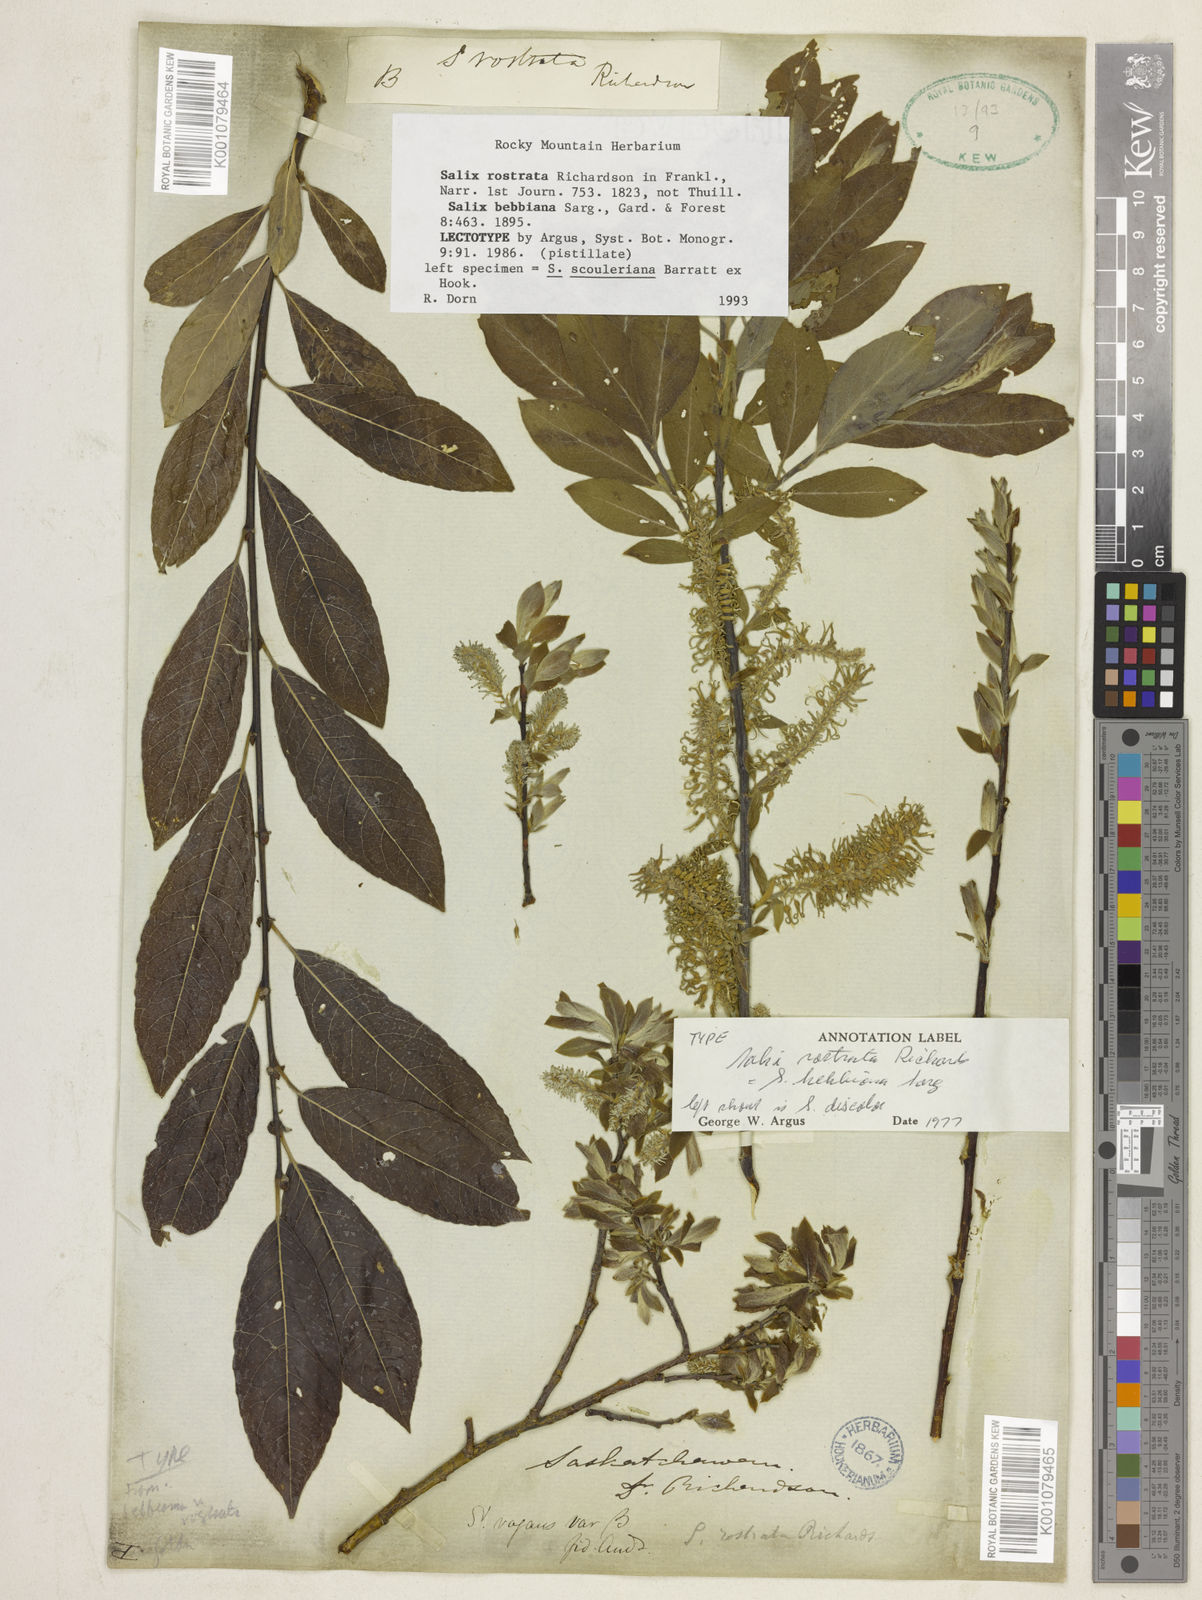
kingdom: Plantae
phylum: Tracheophyta
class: Magnoliopsida
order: Malpighiales
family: Salicaceae
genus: Salix
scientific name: Salix bebbiana
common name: Bebb's willow
